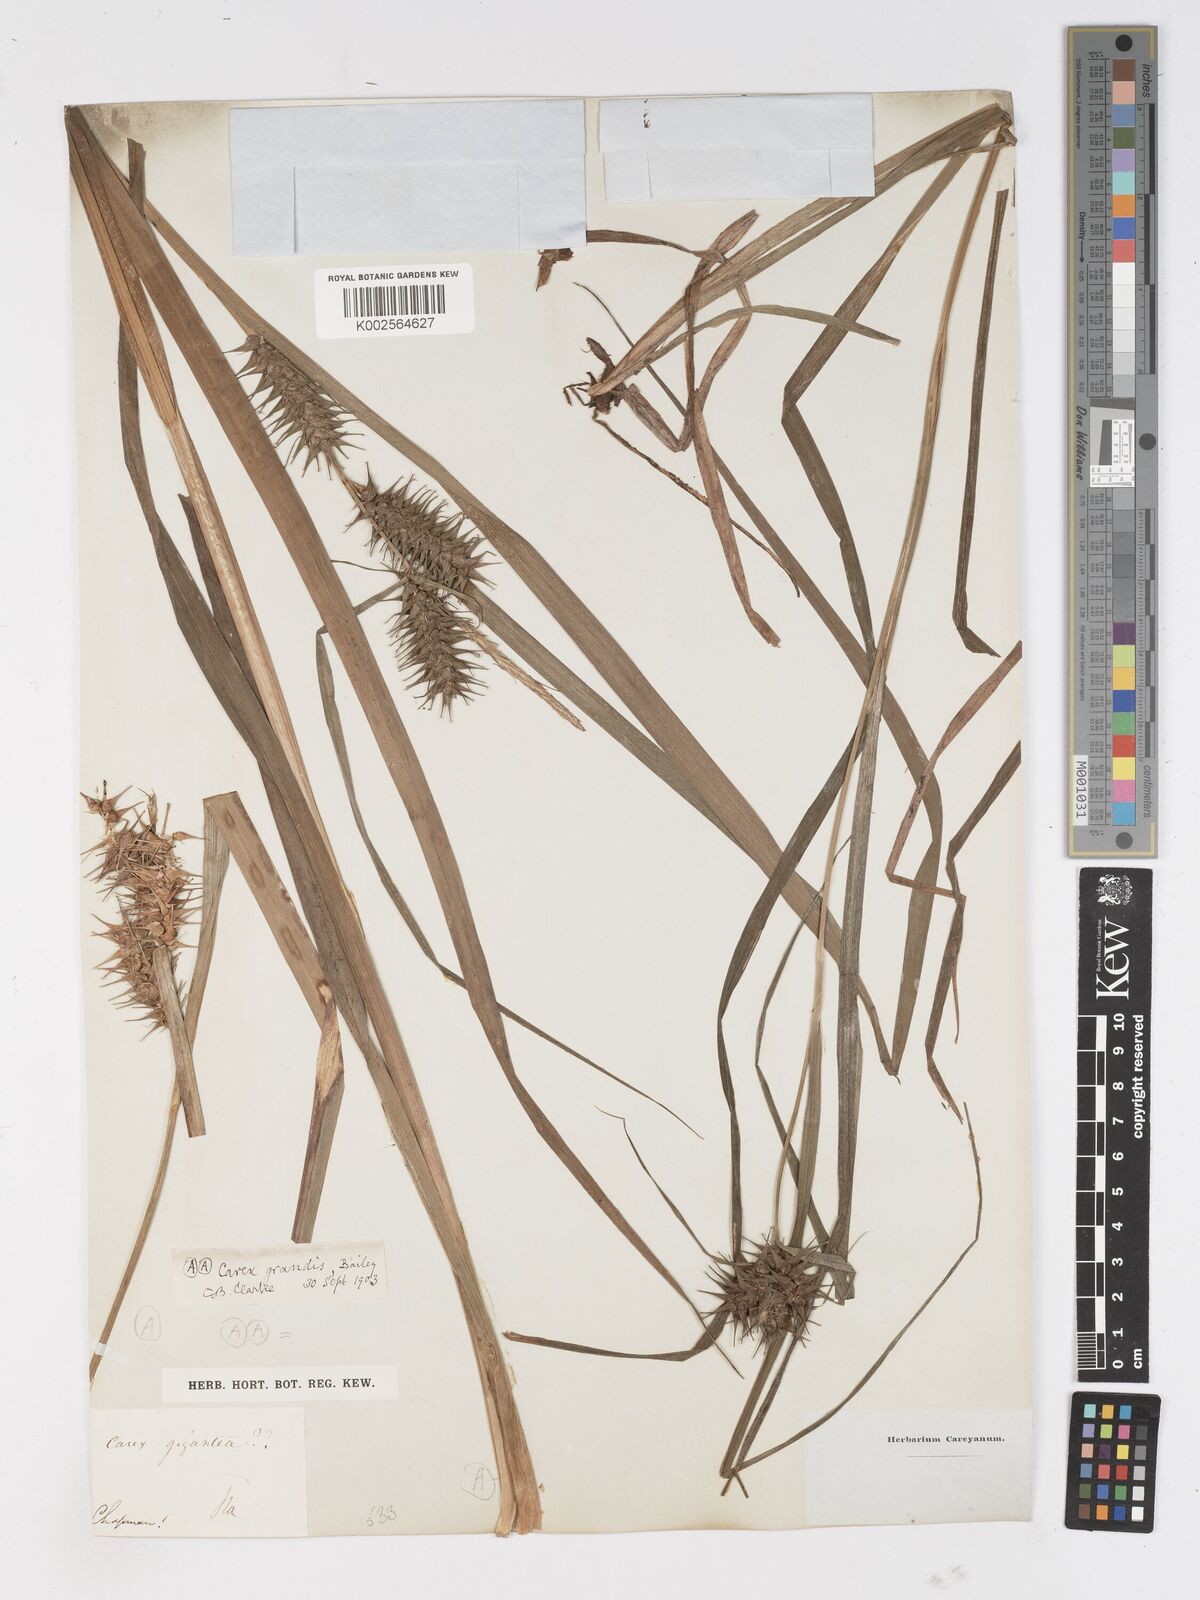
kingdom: Plantae
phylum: Tracheophyta
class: Liliopsida
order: Poales
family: Cyperaceae
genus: Carex
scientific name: Carex gigantea
